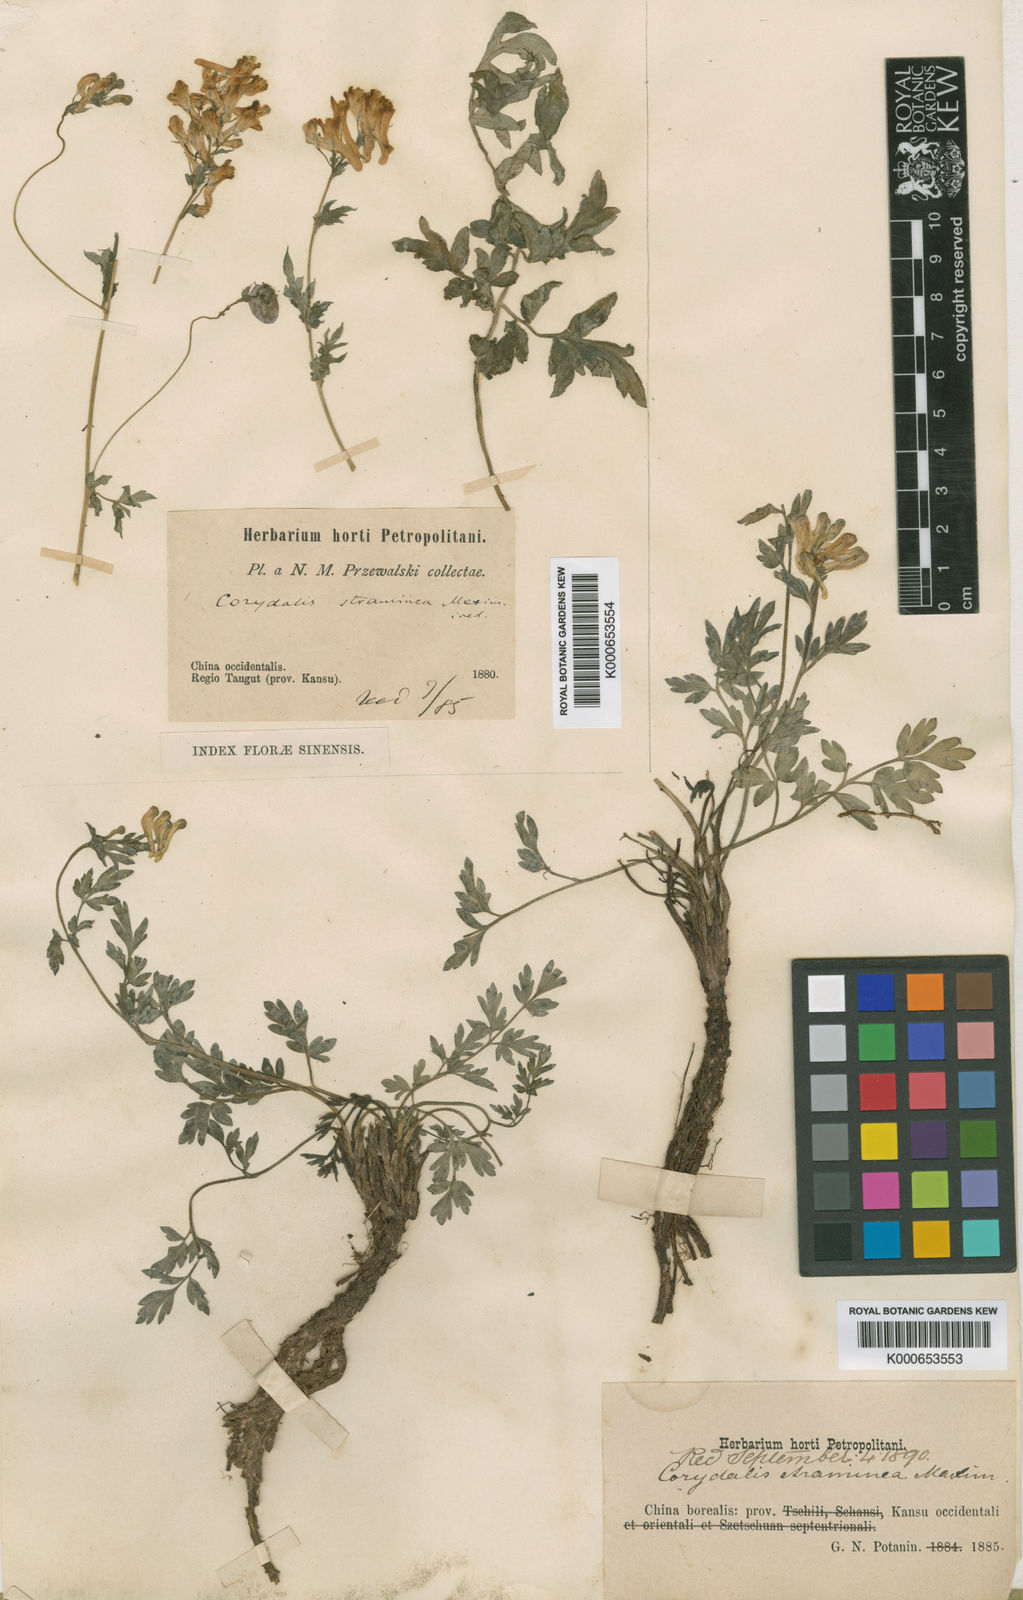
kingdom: Plantae
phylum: Tracheophyta
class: Magnoliopsida
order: Ranunculales
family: Papaveraceae
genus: Corydalis
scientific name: Corydalis straminea
